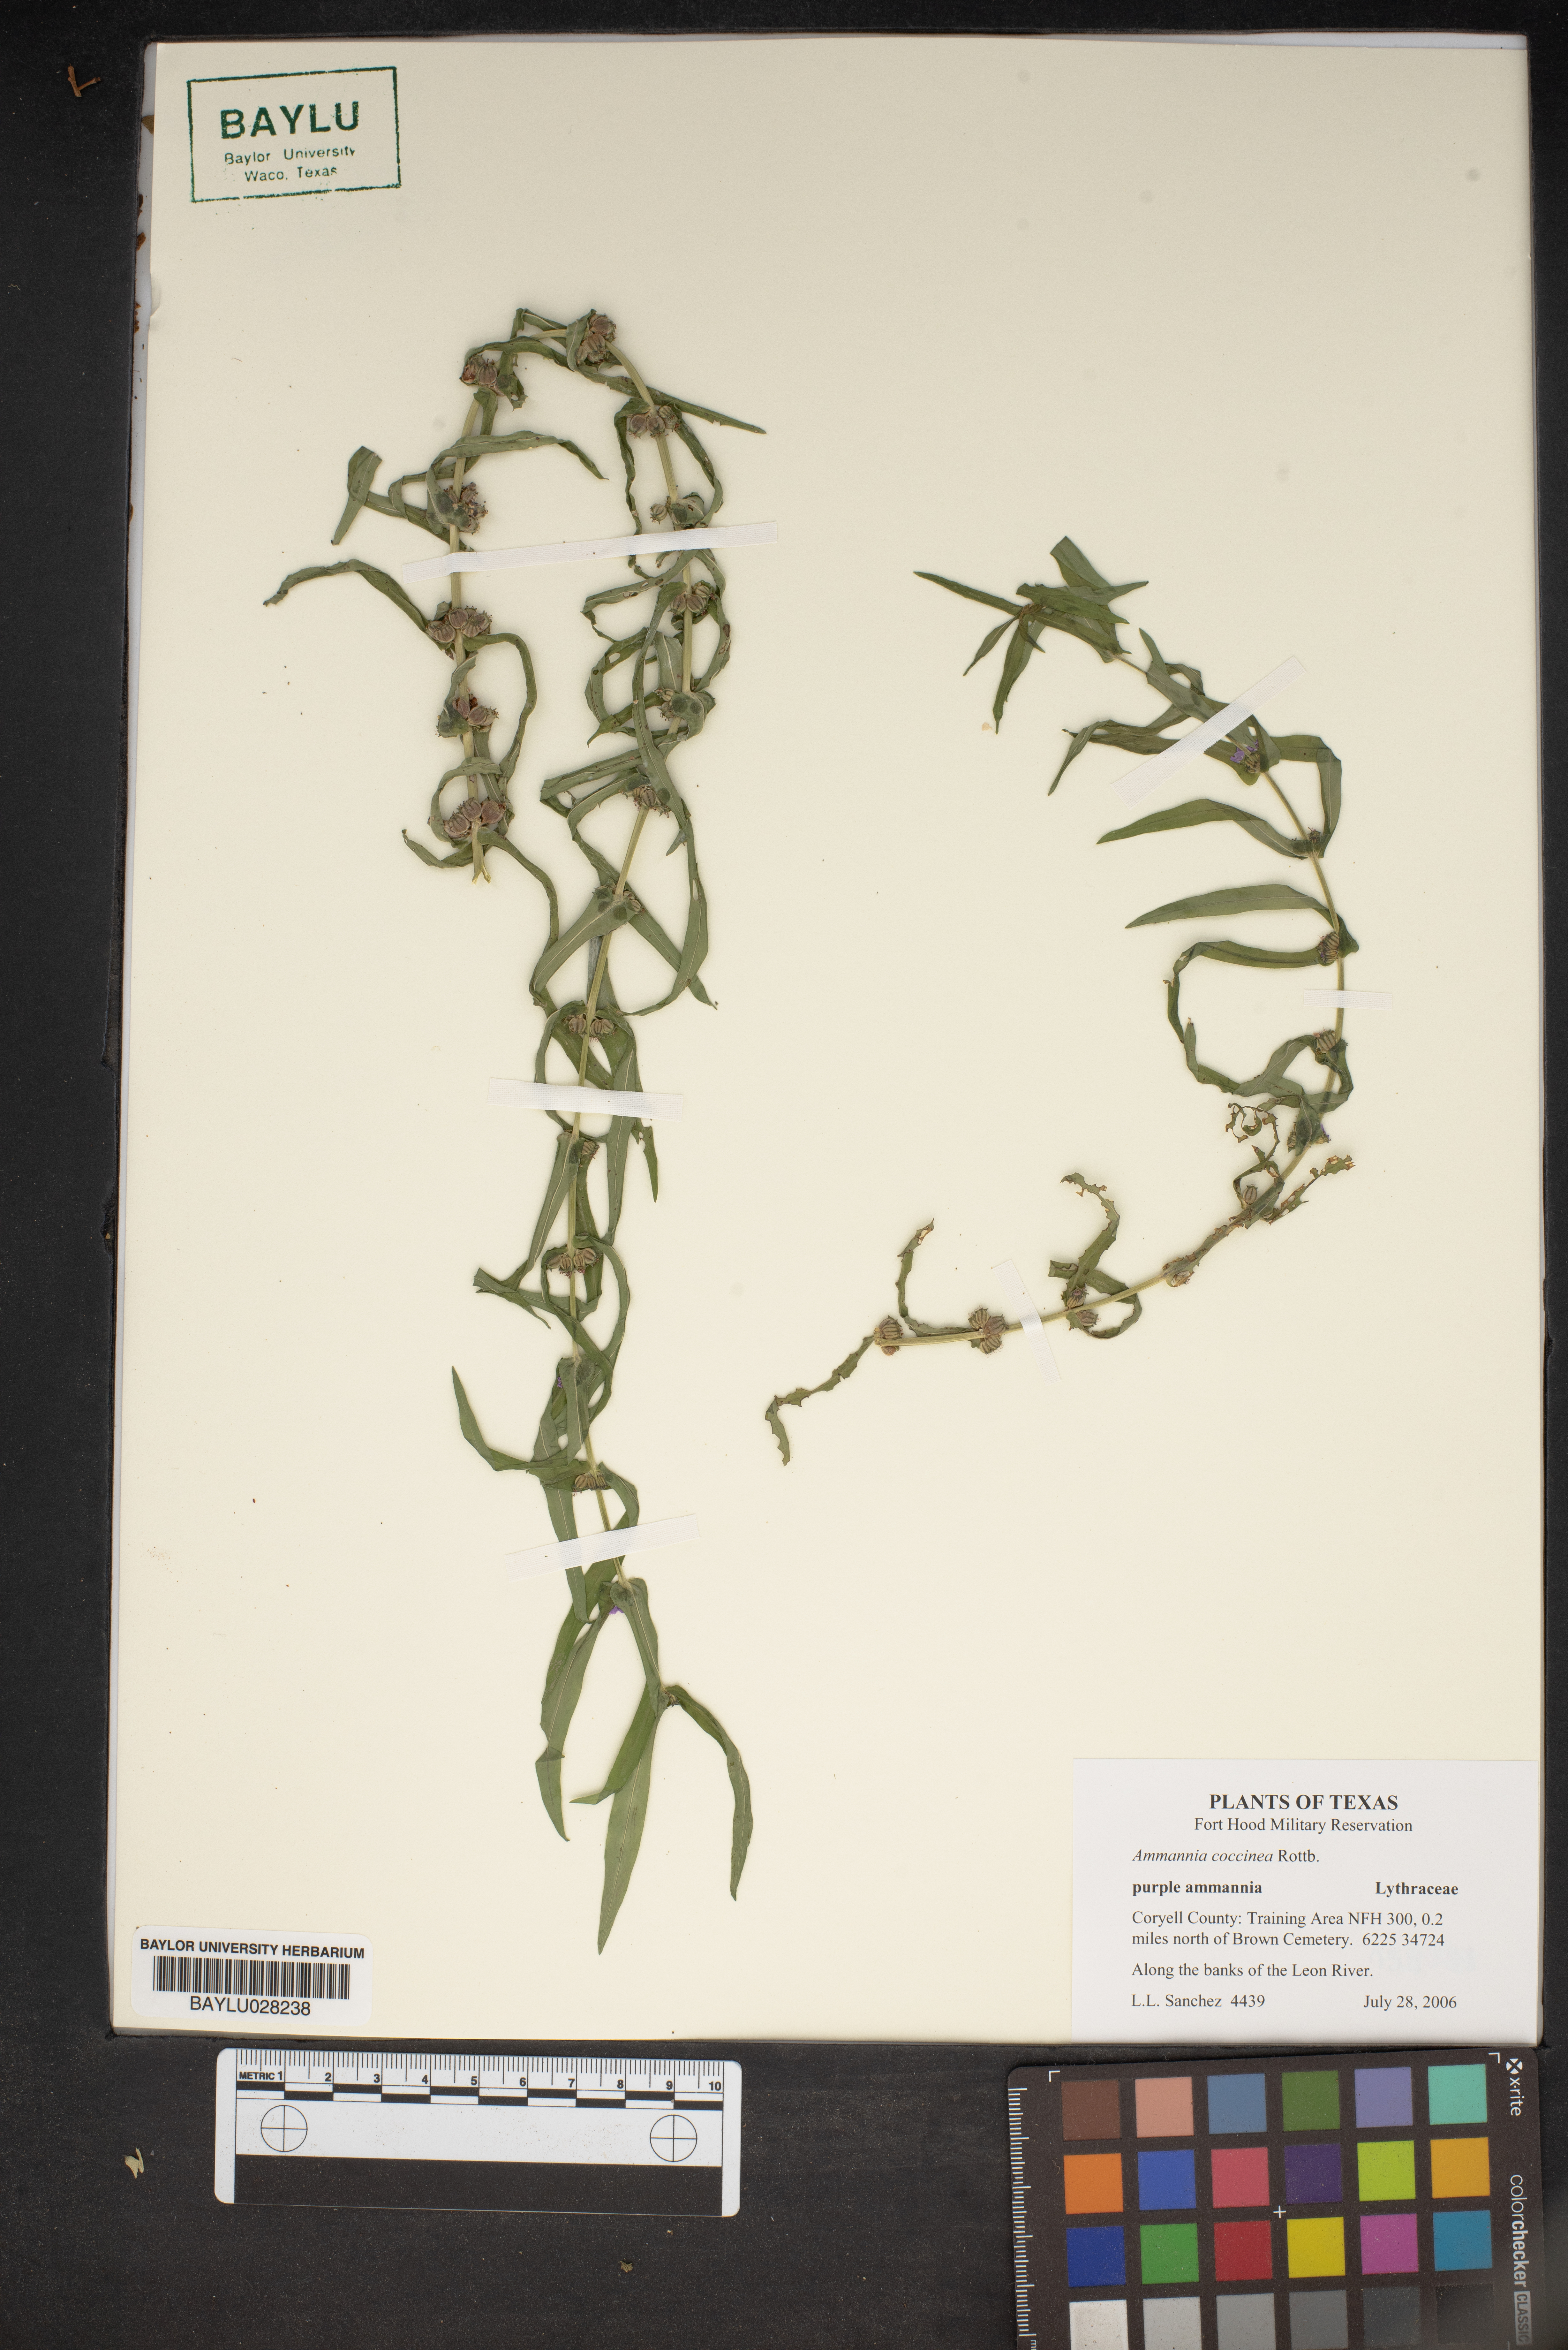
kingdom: Plantae
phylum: Tracheophyta
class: Magnoliopsida
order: Myrtales
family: Lythraceae
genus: Ammannia
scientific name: Ammannia coccinea
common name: Valley redstem
